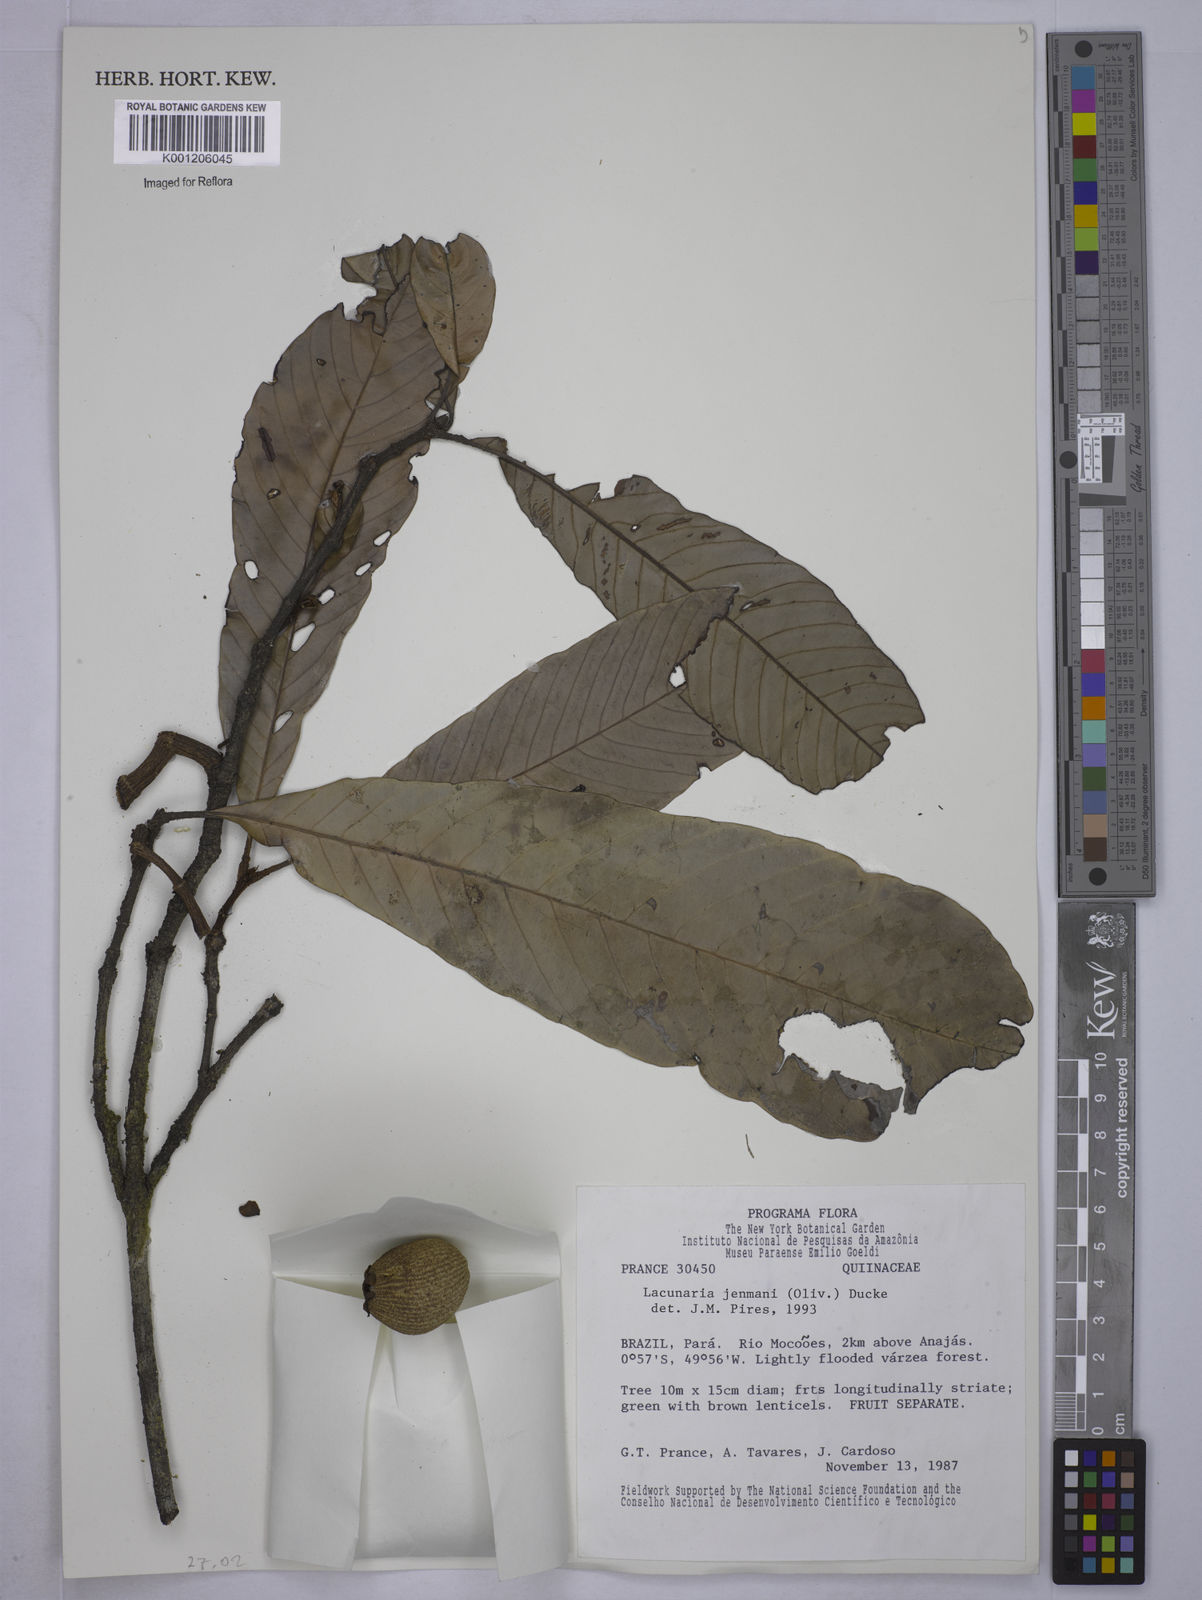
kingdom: Plantae
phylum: Tracheophyta
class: Magnoliopsida
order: Malpighiales
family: Quiinaceae
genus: Lacunaria
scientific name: Lacunaria jenmanii
